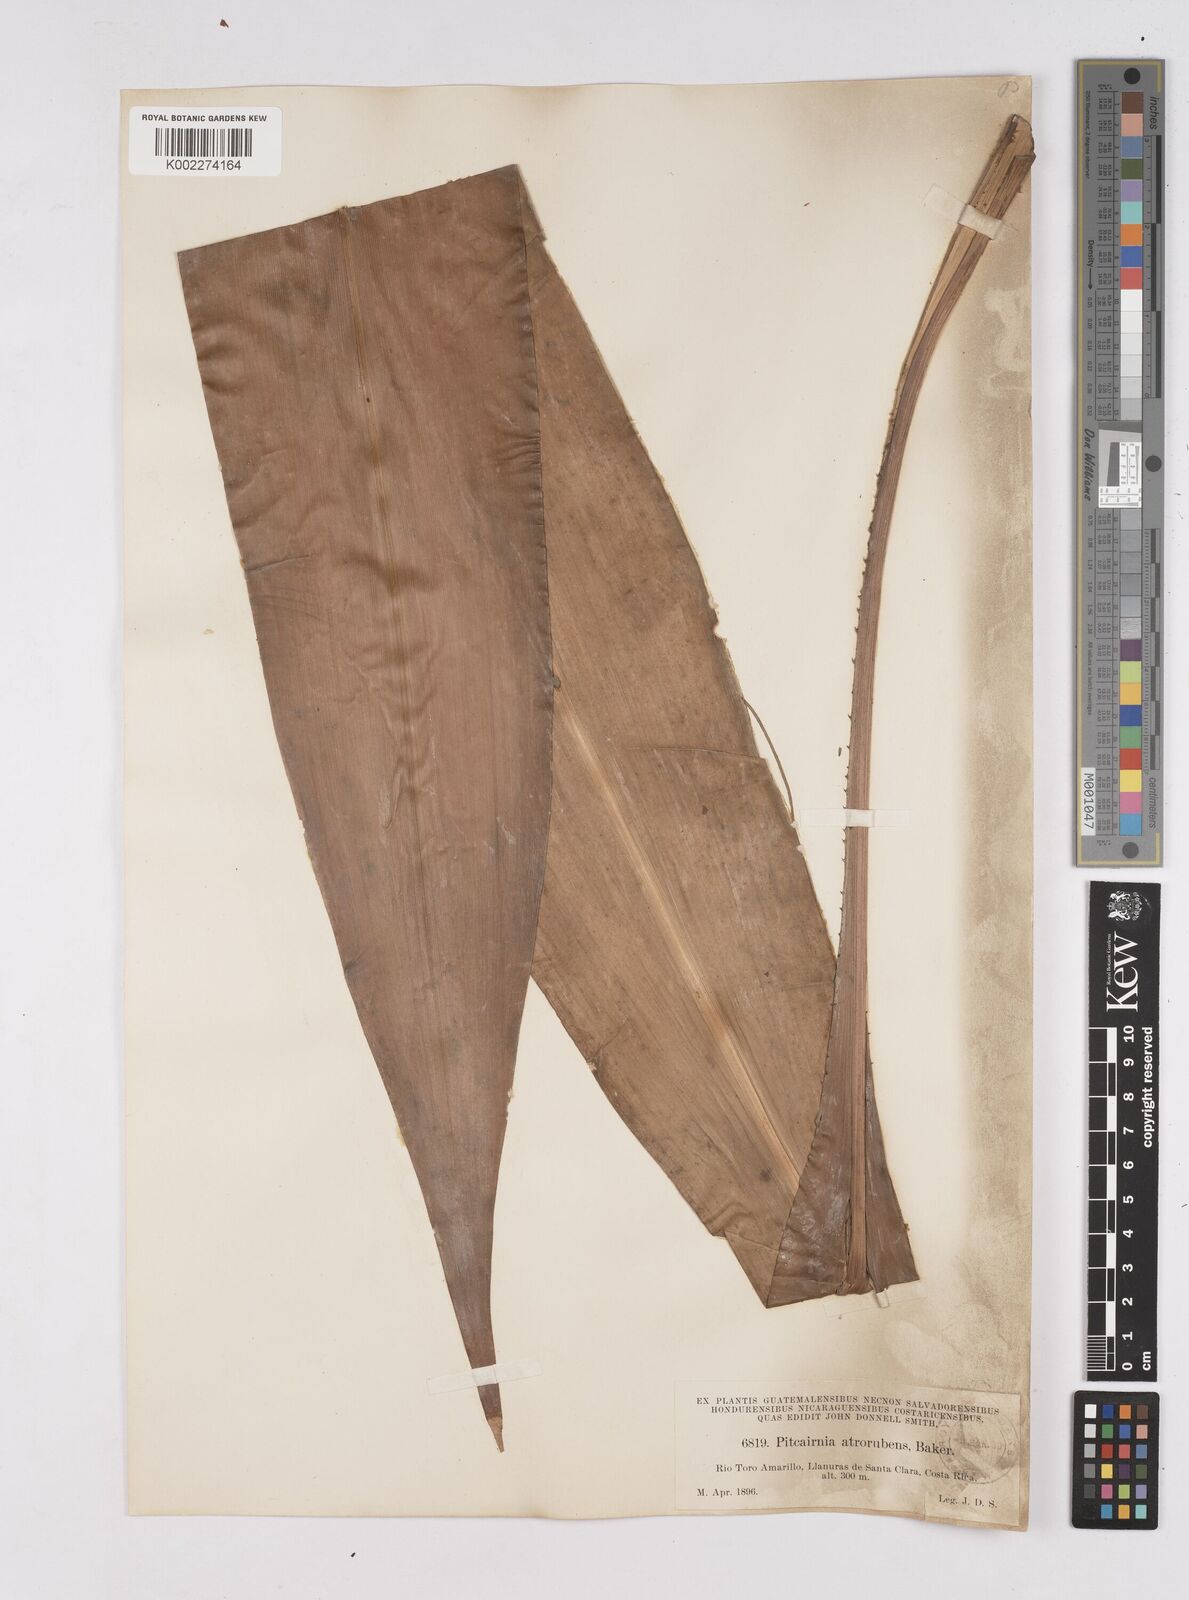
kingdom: Plantae
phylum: Tracheophyta
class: Liliopsida
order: Poales
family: Bromeliaceae
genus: Pitcairnia
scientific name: Pitcairnia atrorubens
